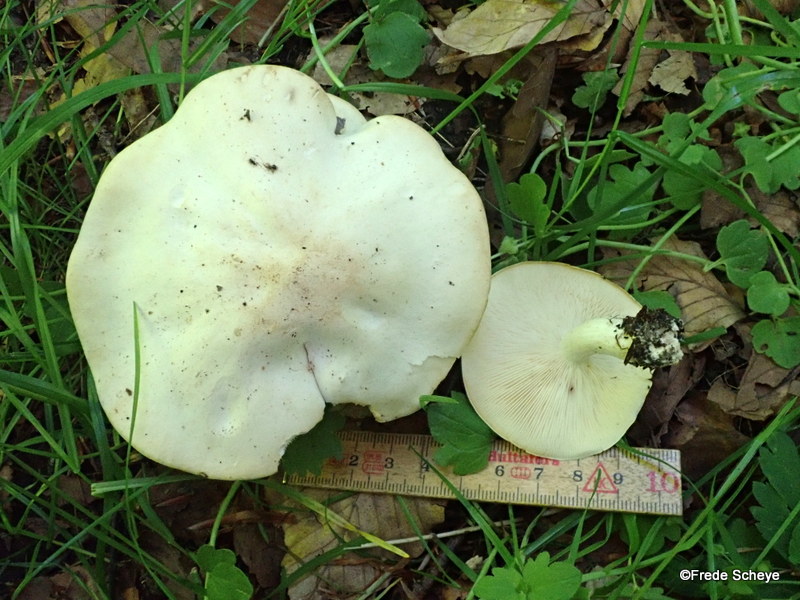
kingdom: Fungi
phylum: Basidiomycota
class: Agaricomycetes
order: Agaricales
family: Lyophyllaceae
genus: Calocybe
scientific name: Calocybe gambosa
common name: vårmusseron
